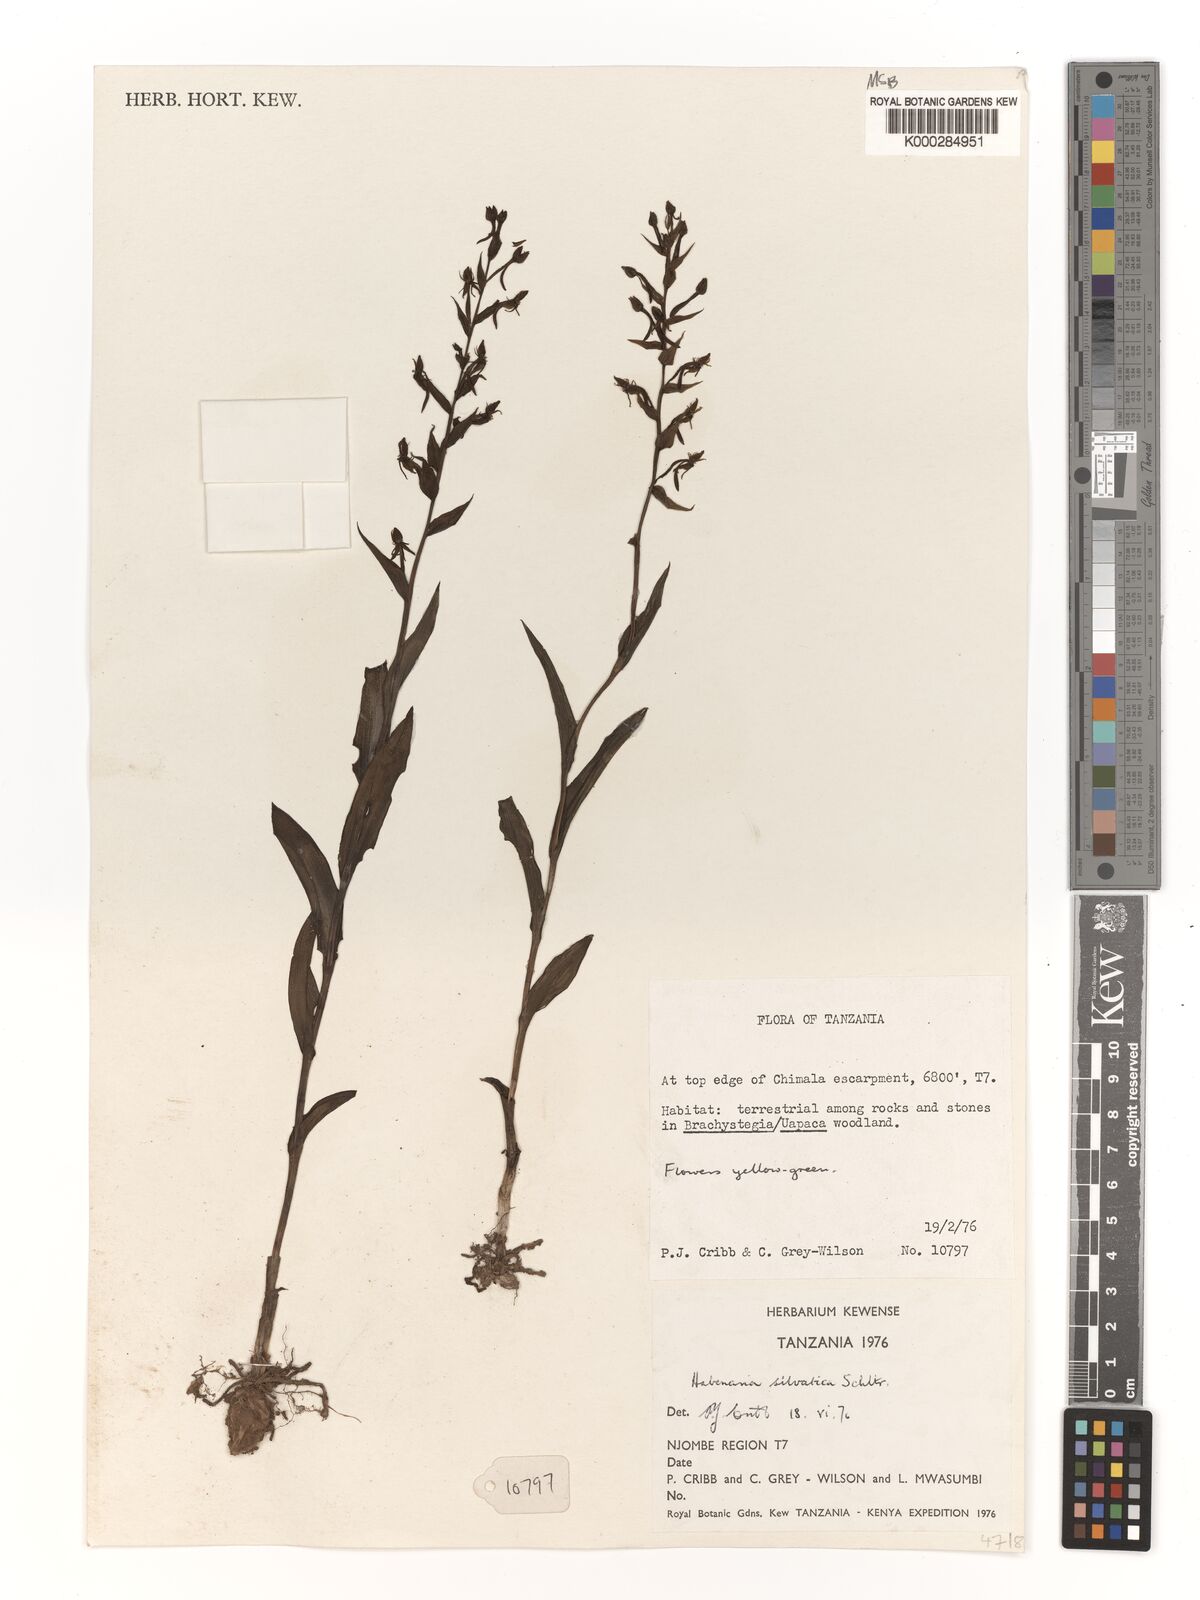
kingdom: Plantae
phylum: Tracheophyta
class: Liliopsida
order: Asparagales
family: Orchidaceae
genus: Habenaria
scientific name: Habenaria silvatica
